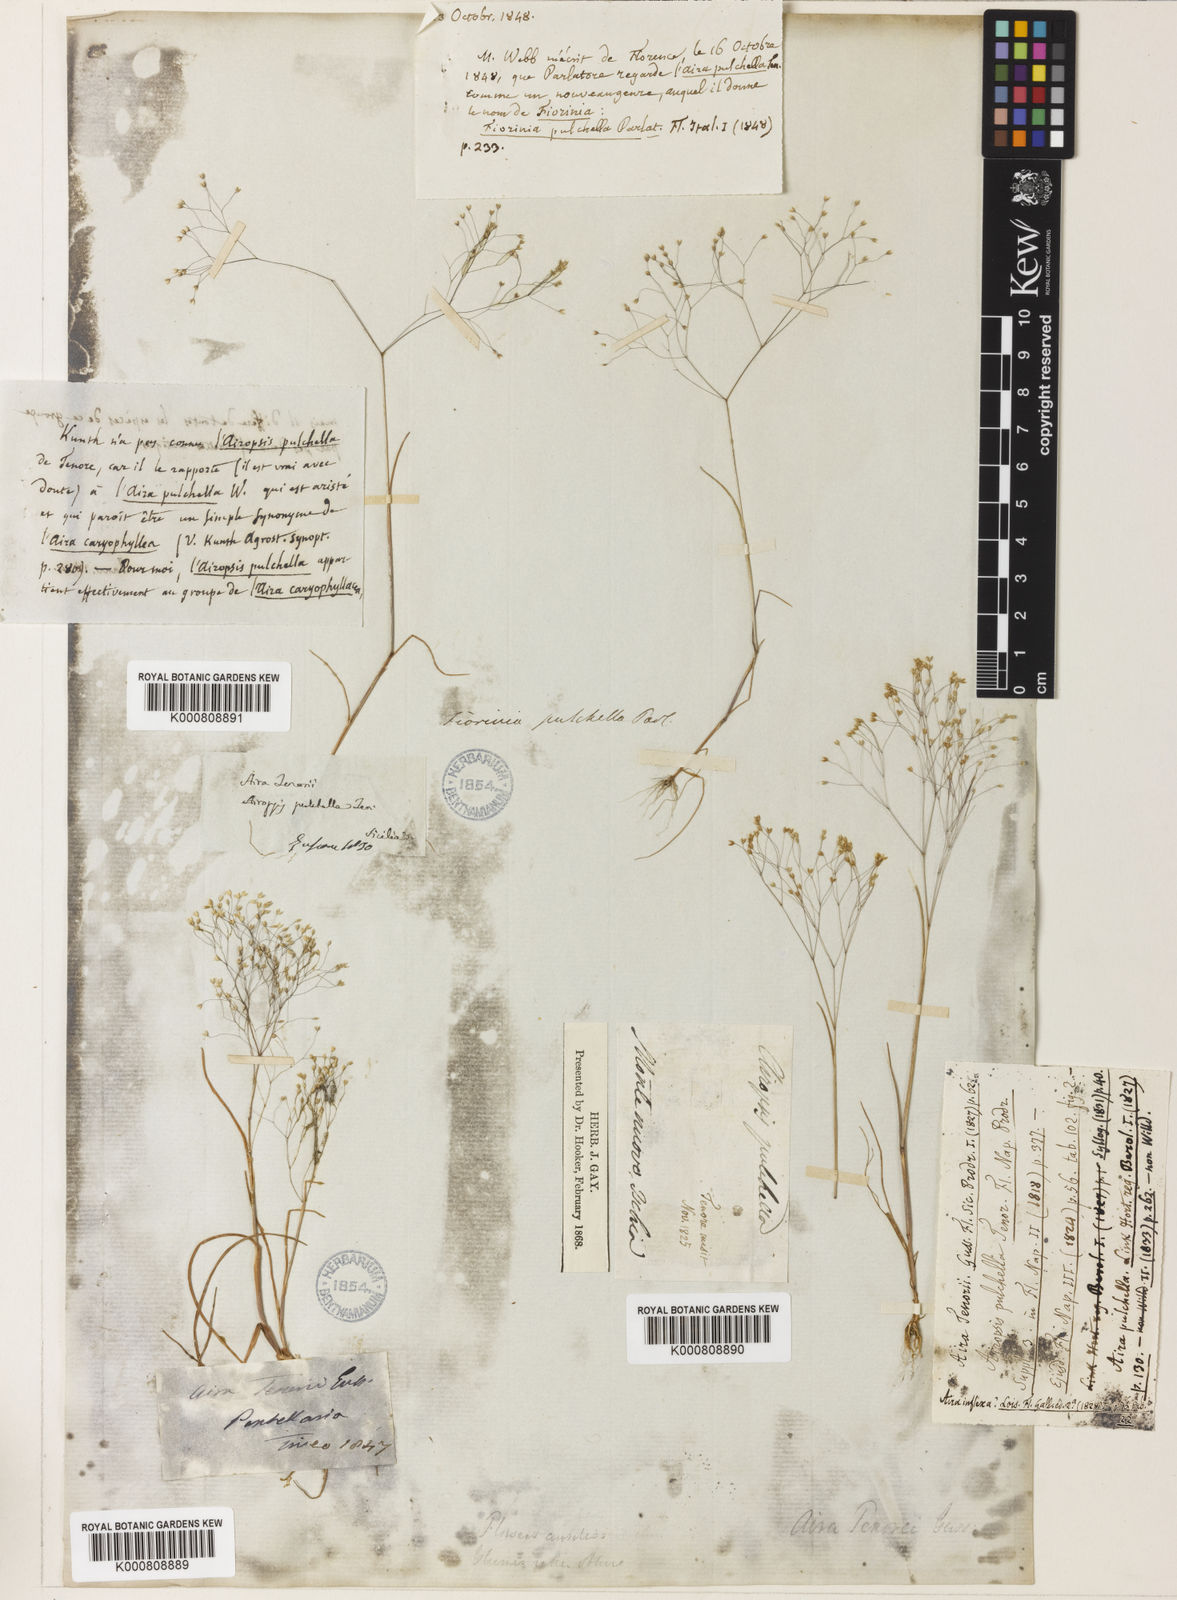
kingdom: Plantae
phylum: Tracheophyta
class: Liliopsida
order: Poales
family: Poaceae
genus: Aira
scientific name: Aira tenorei
